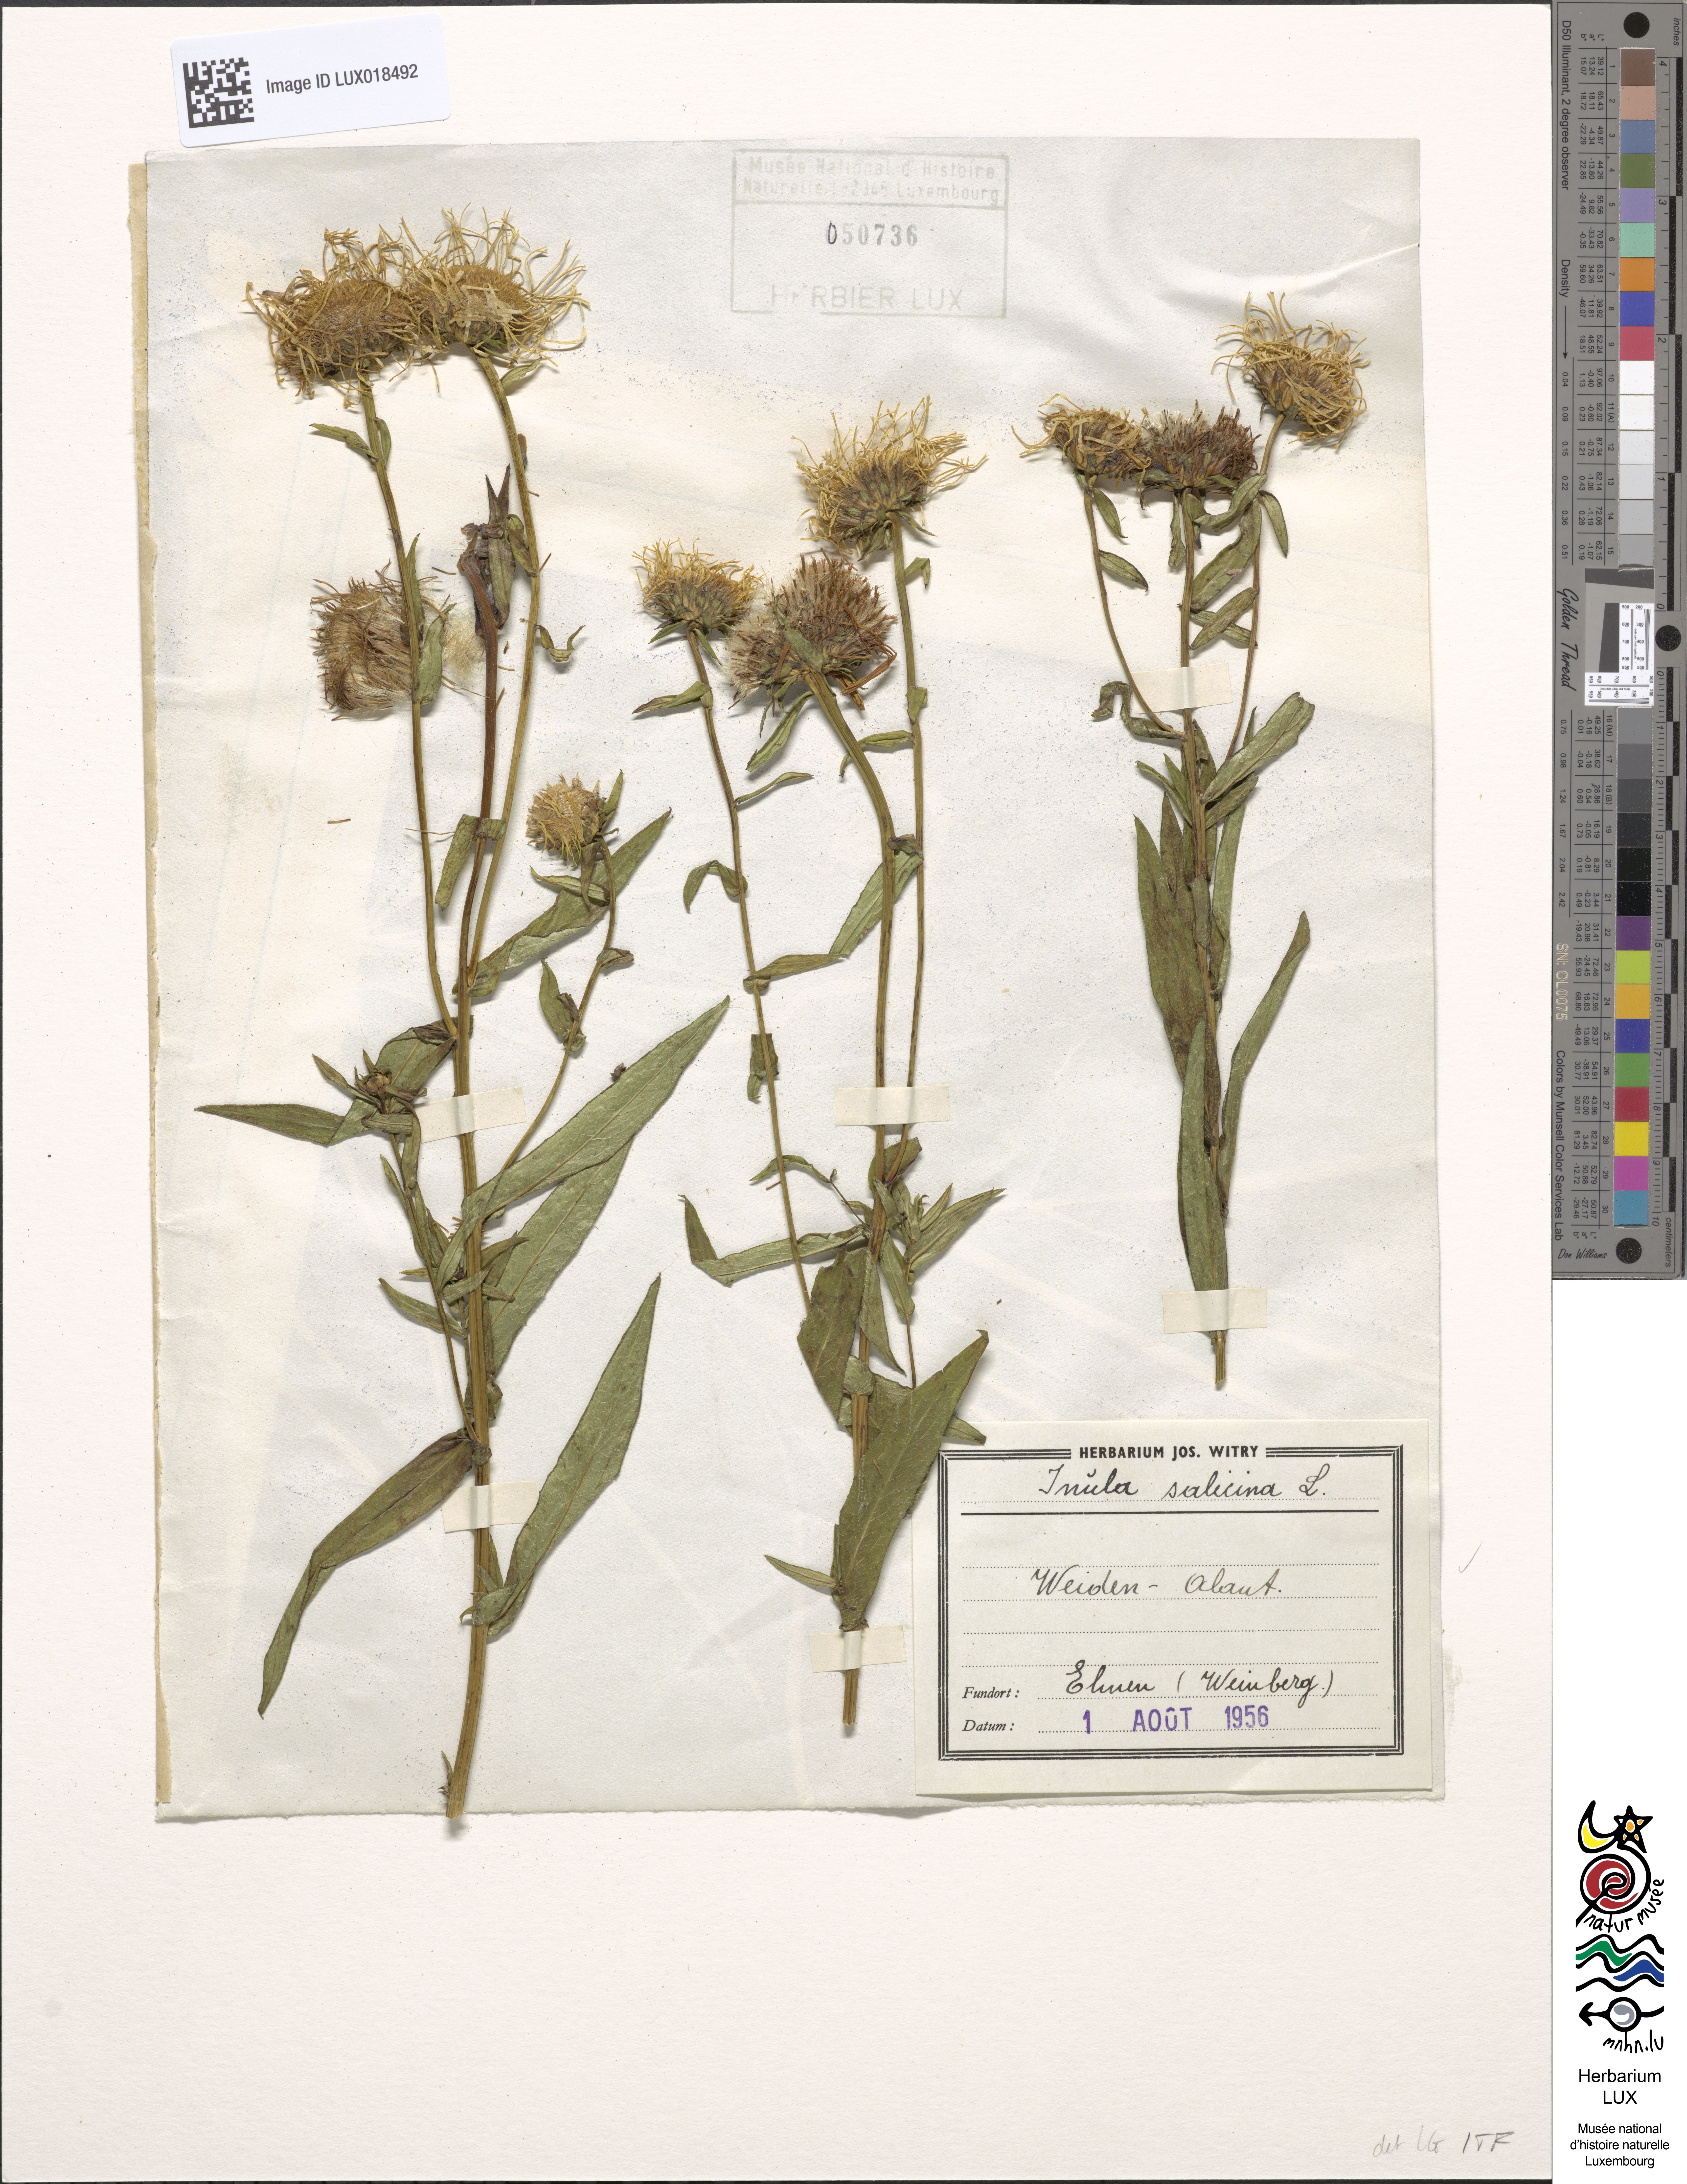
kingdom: Plantae
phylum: Tracheophyta
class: Magnoliopsida
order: Asterales
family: Asteraceae
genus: Pentanema
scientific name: Pentanema salicinum
